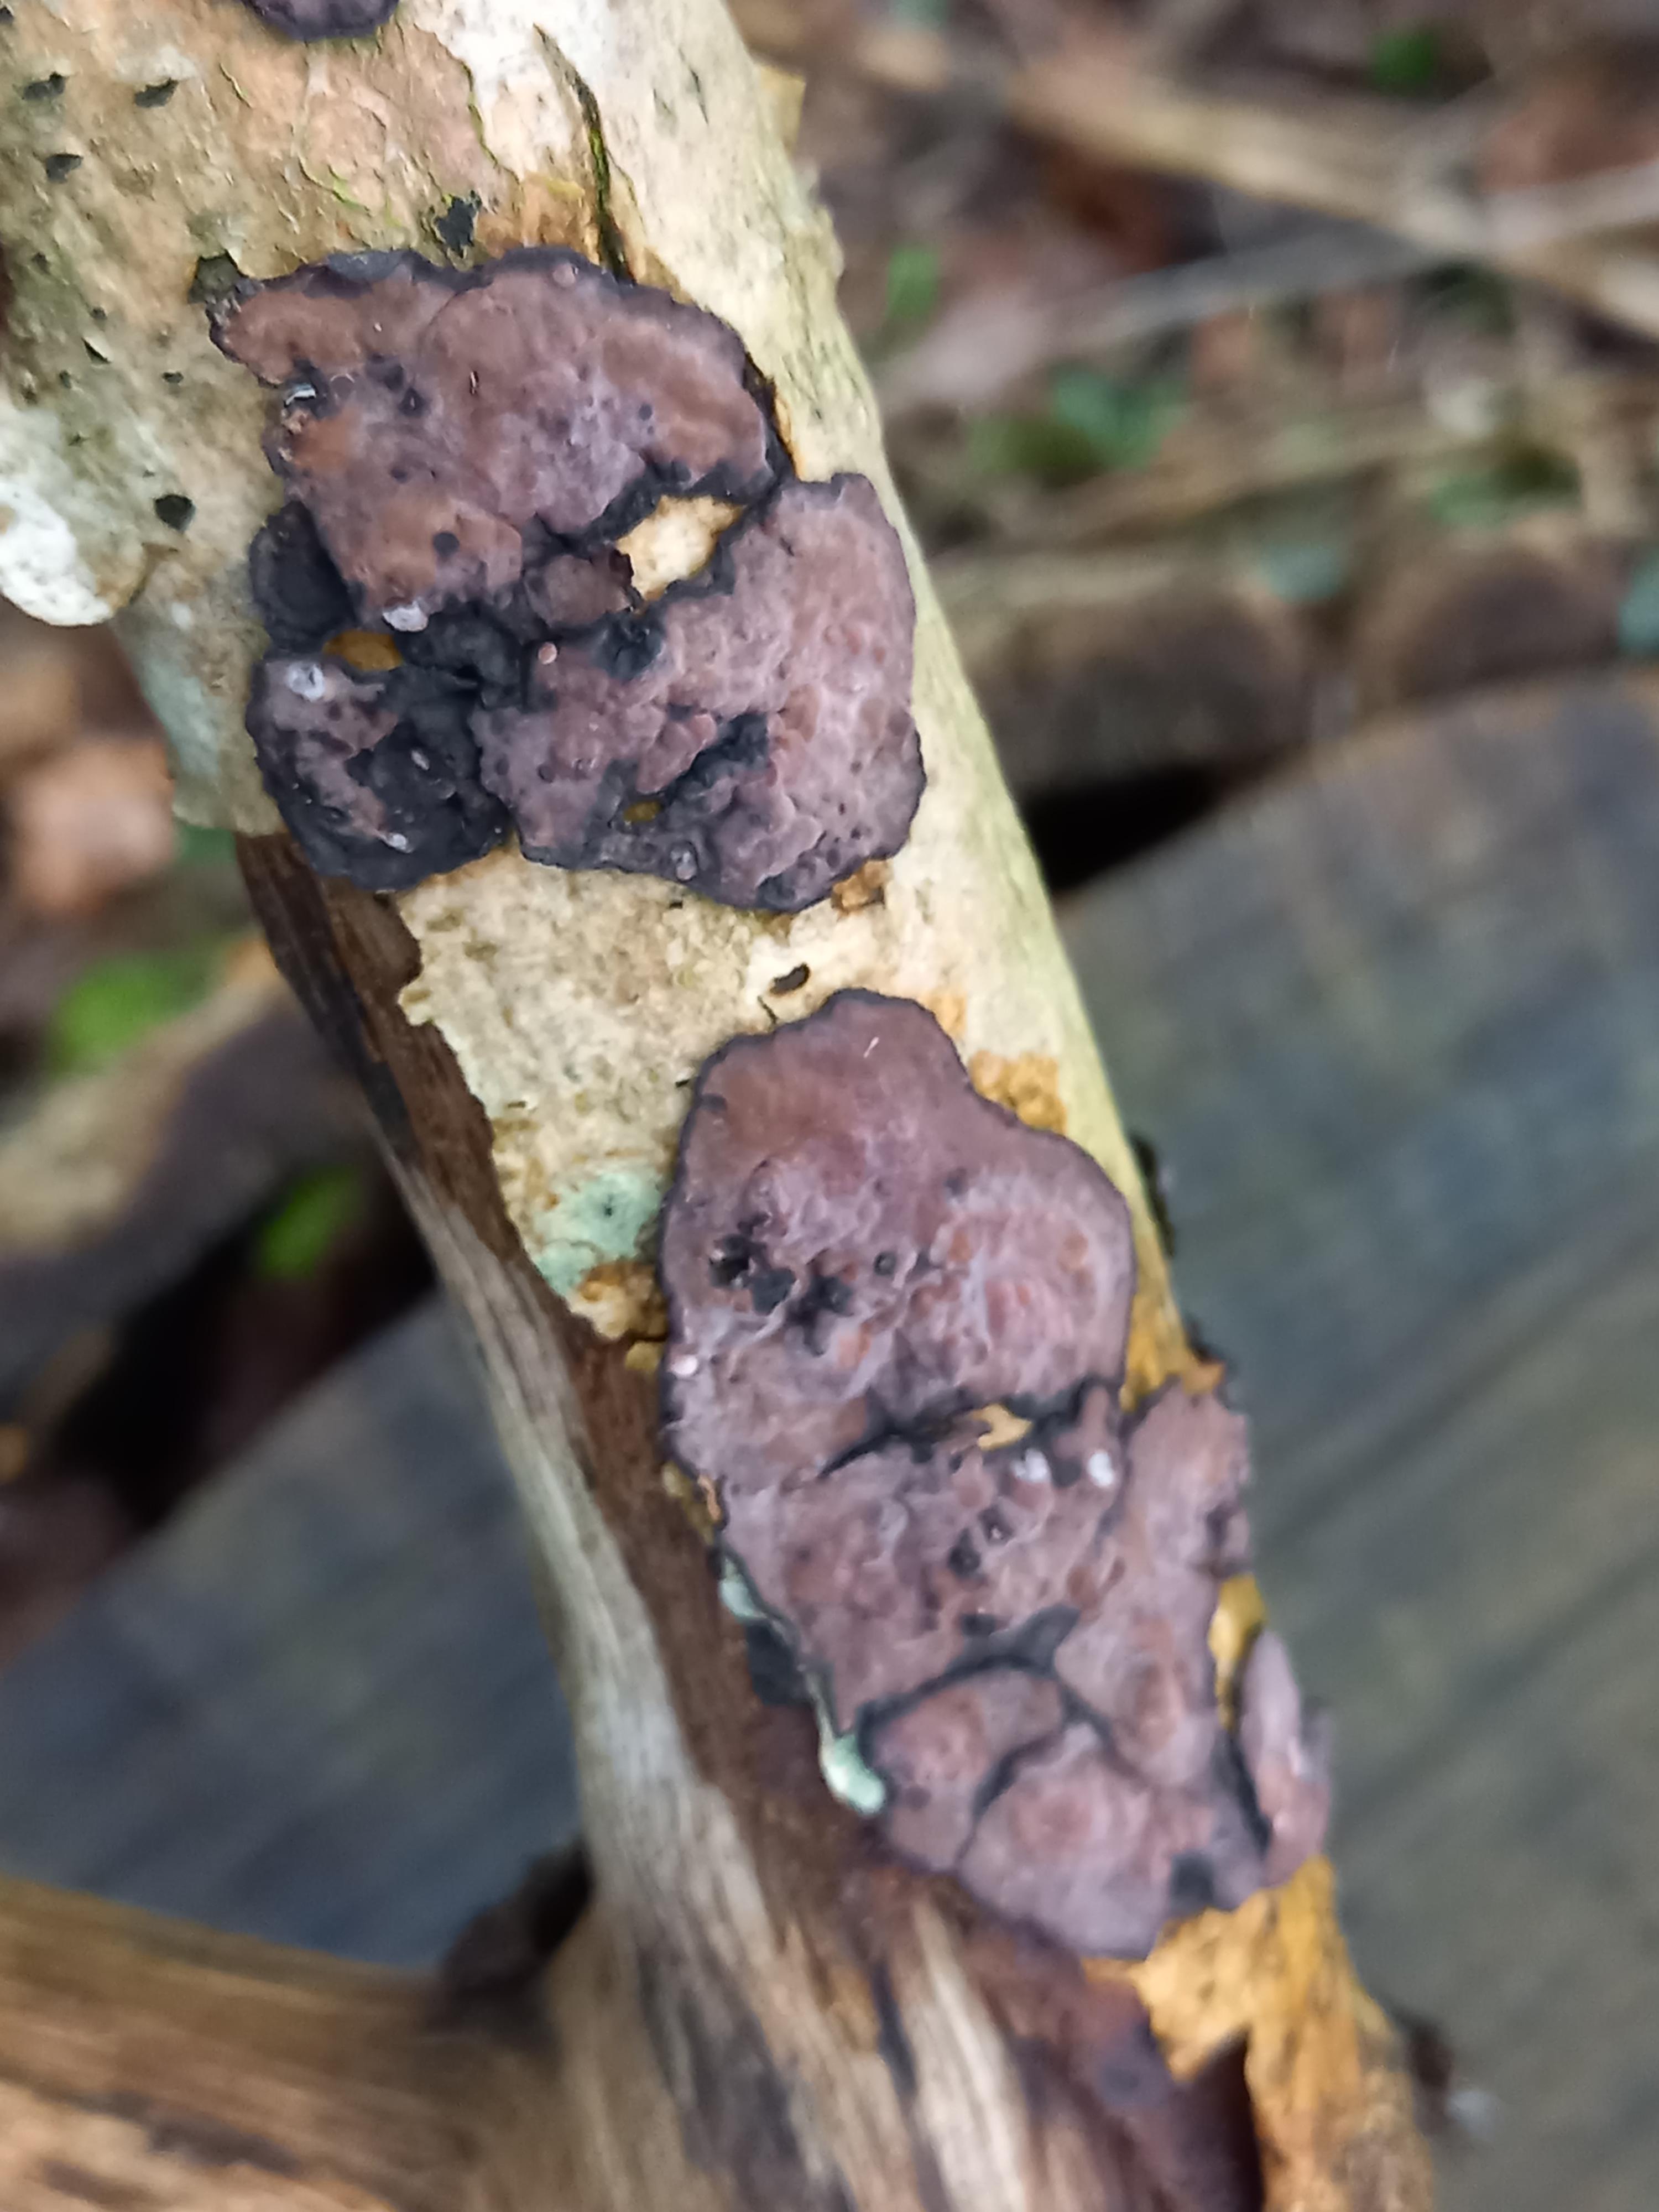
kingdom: Fungi
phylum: Basidiomycota
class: Agaricomycetes
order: Russulales
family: Peniophoraceae
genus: Peniophora
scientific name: Peniophora quercina
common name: ege-voksskind
